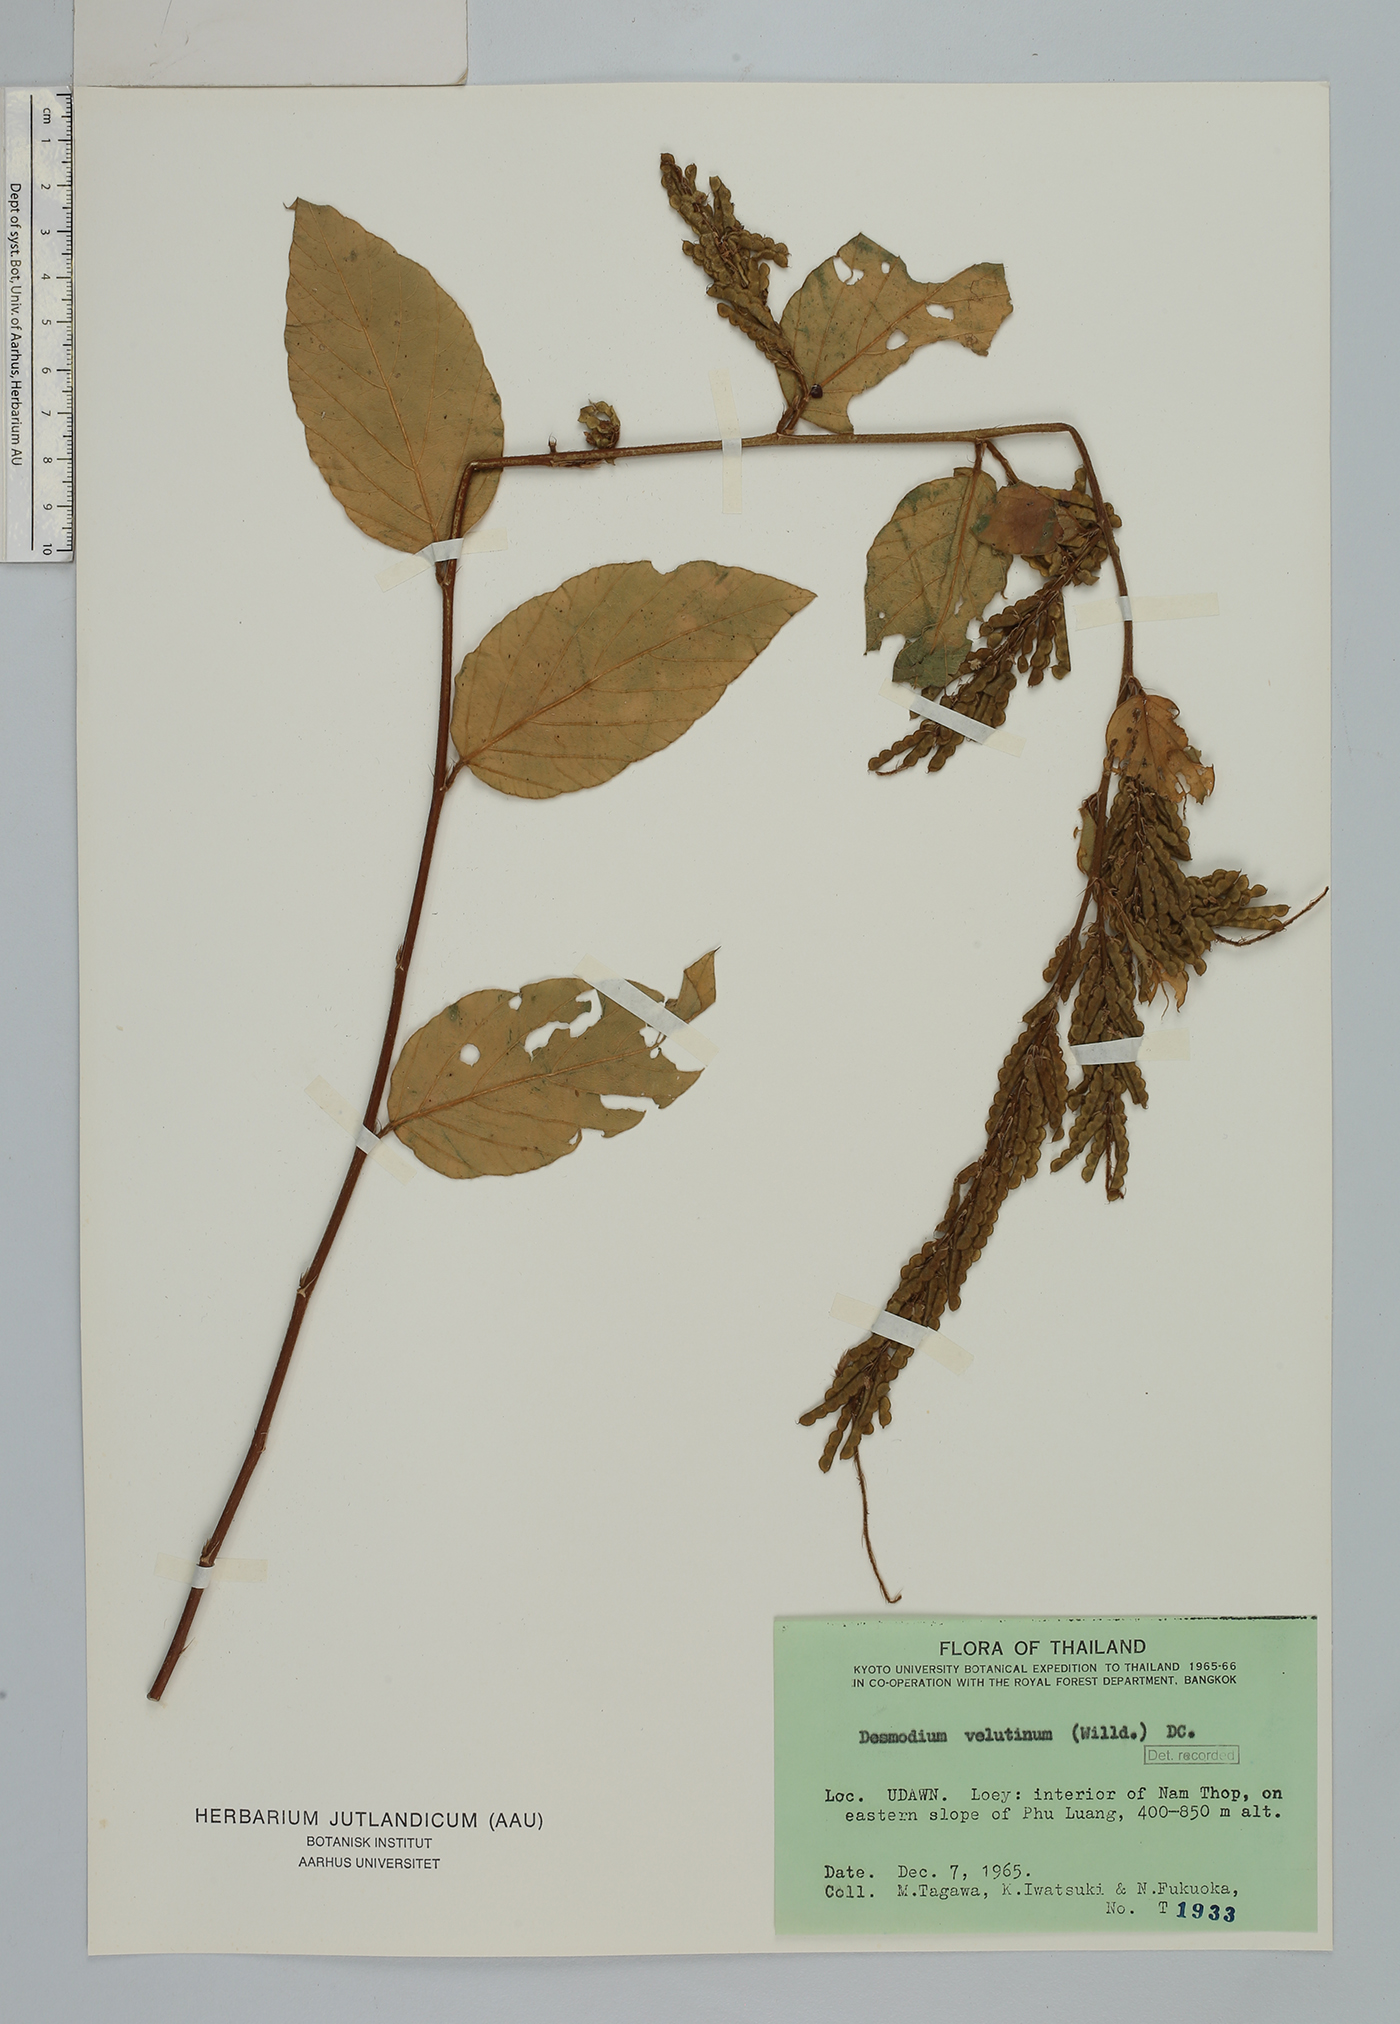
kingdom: Plantae
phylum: Tracheophyta
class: Magnoliopsida
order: Fabales
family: Fabaceae
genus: Desmodium
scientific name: Desmodium
